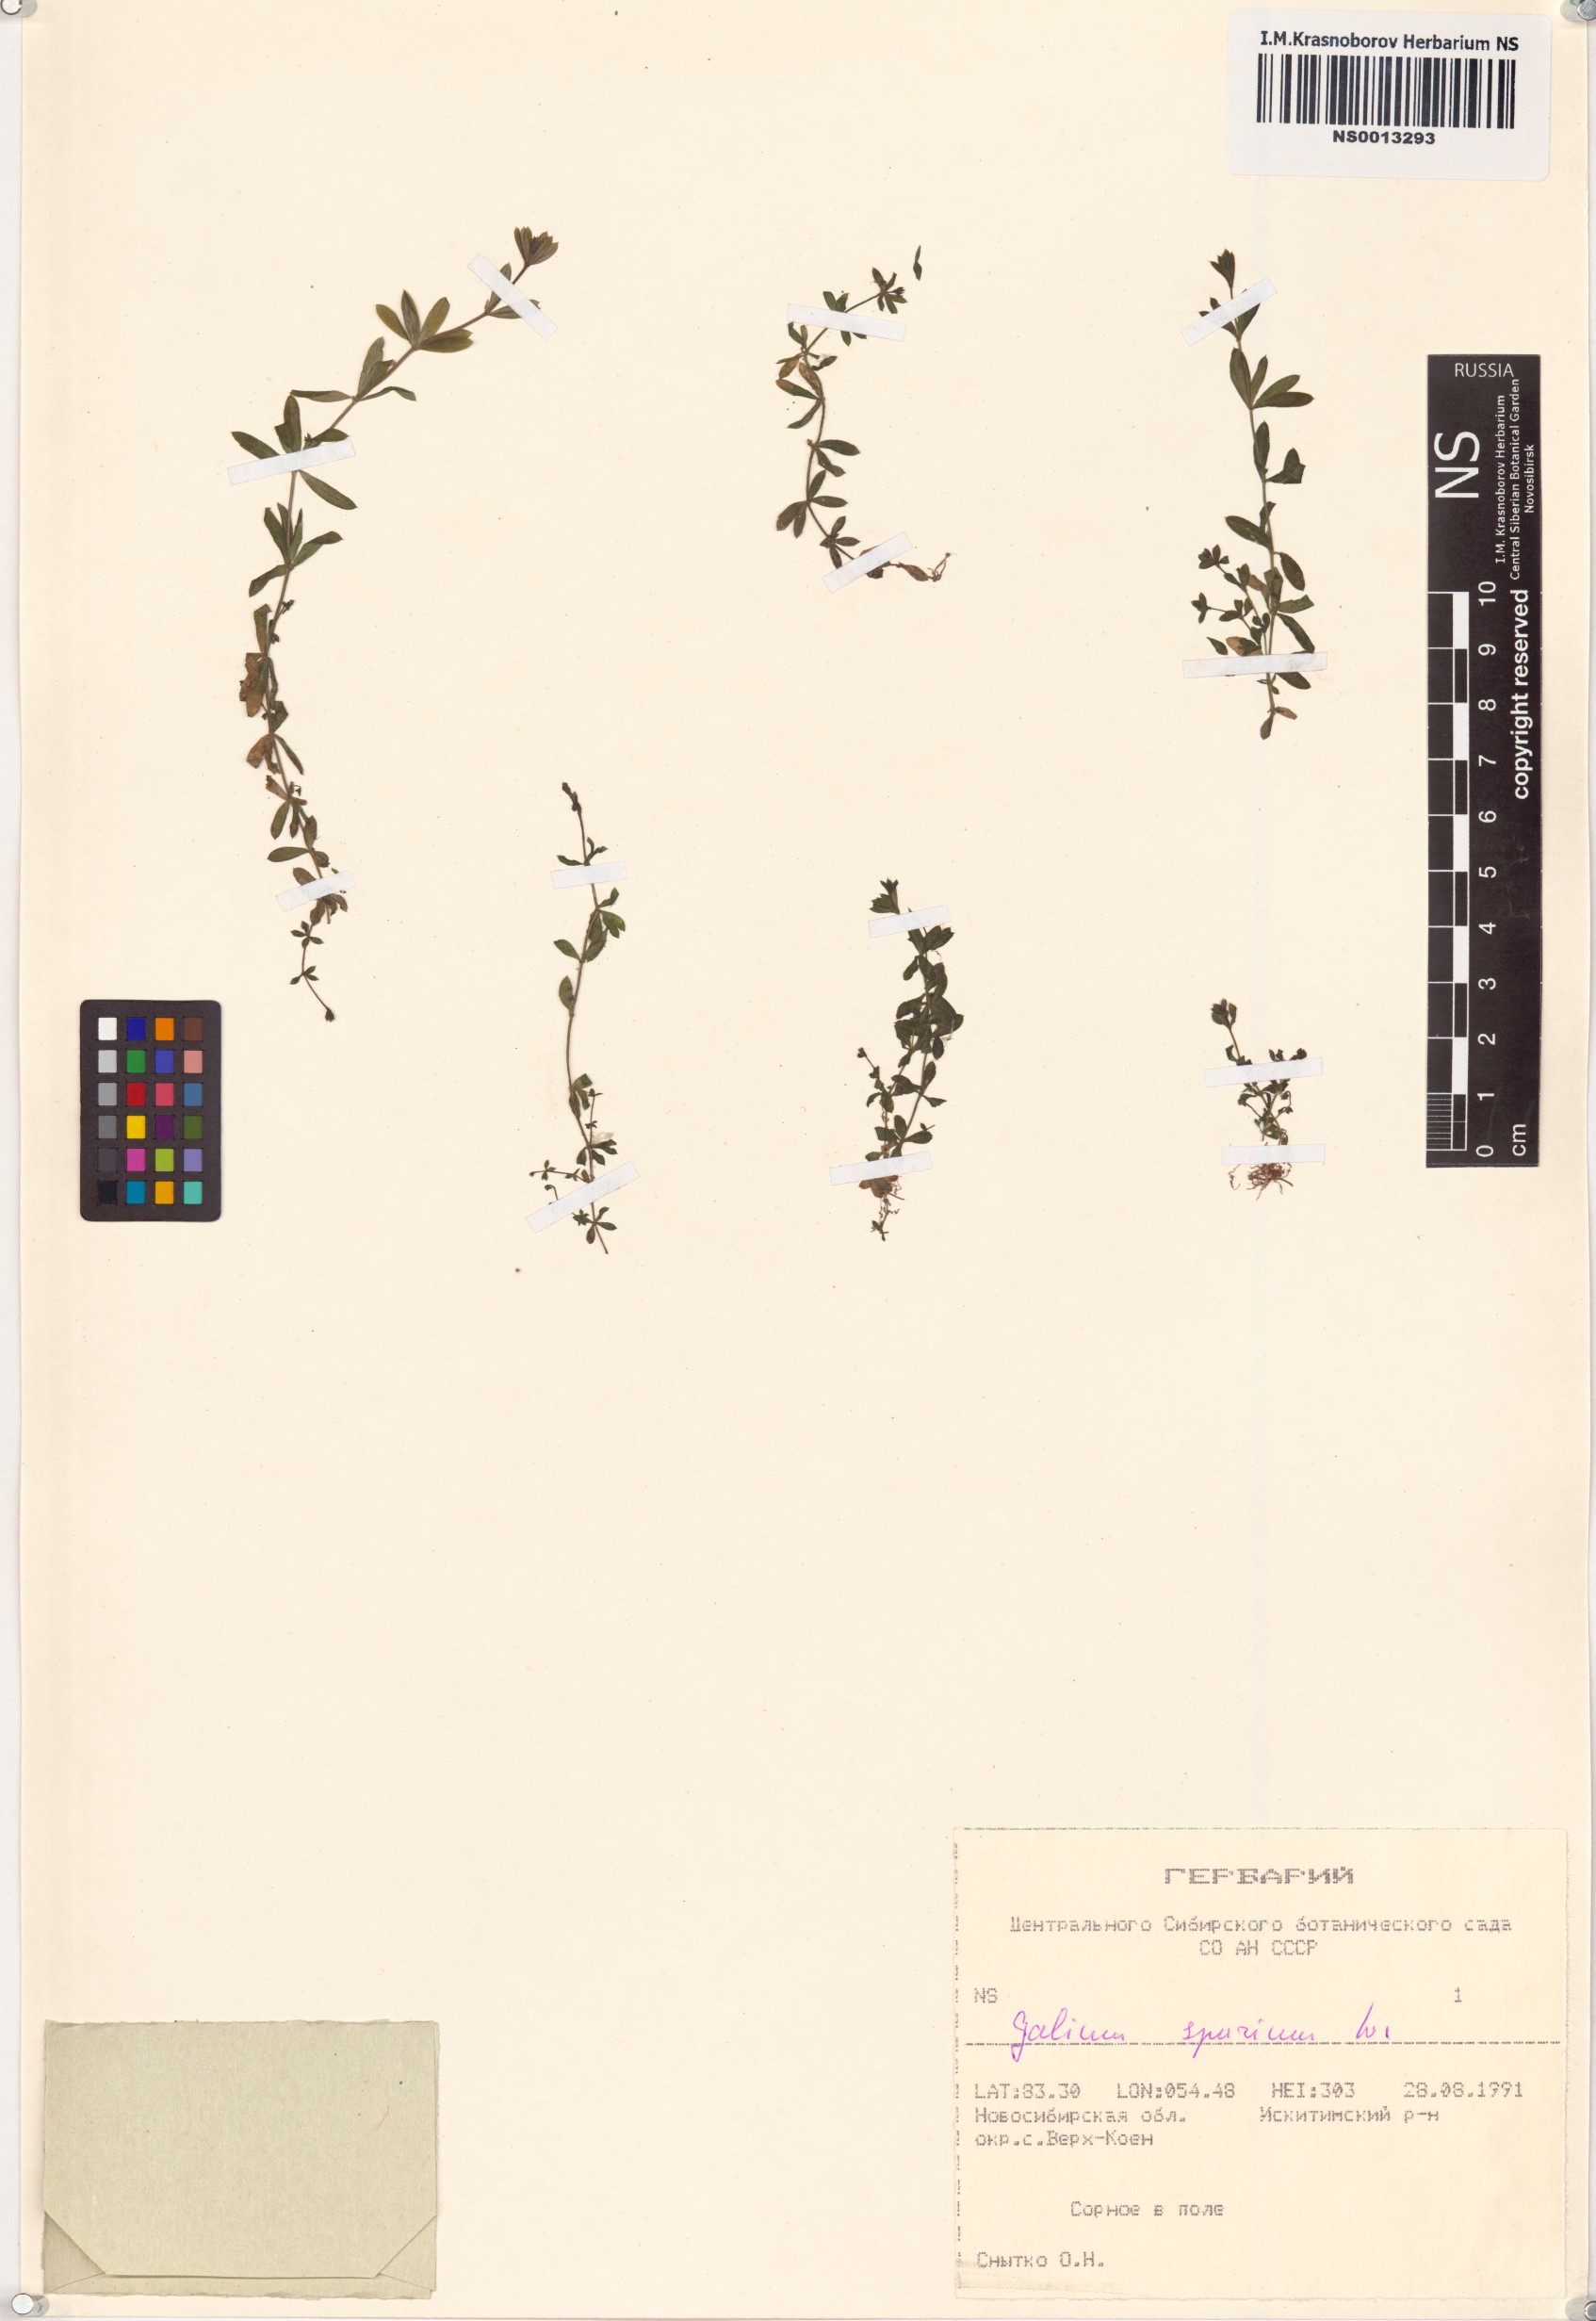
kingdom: Plantae
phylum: Tracheophyta
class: Magnoliopsida
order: Gentianales
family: Rubiaceae
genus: Galium
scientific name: Galium spurium
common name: False cleavers
